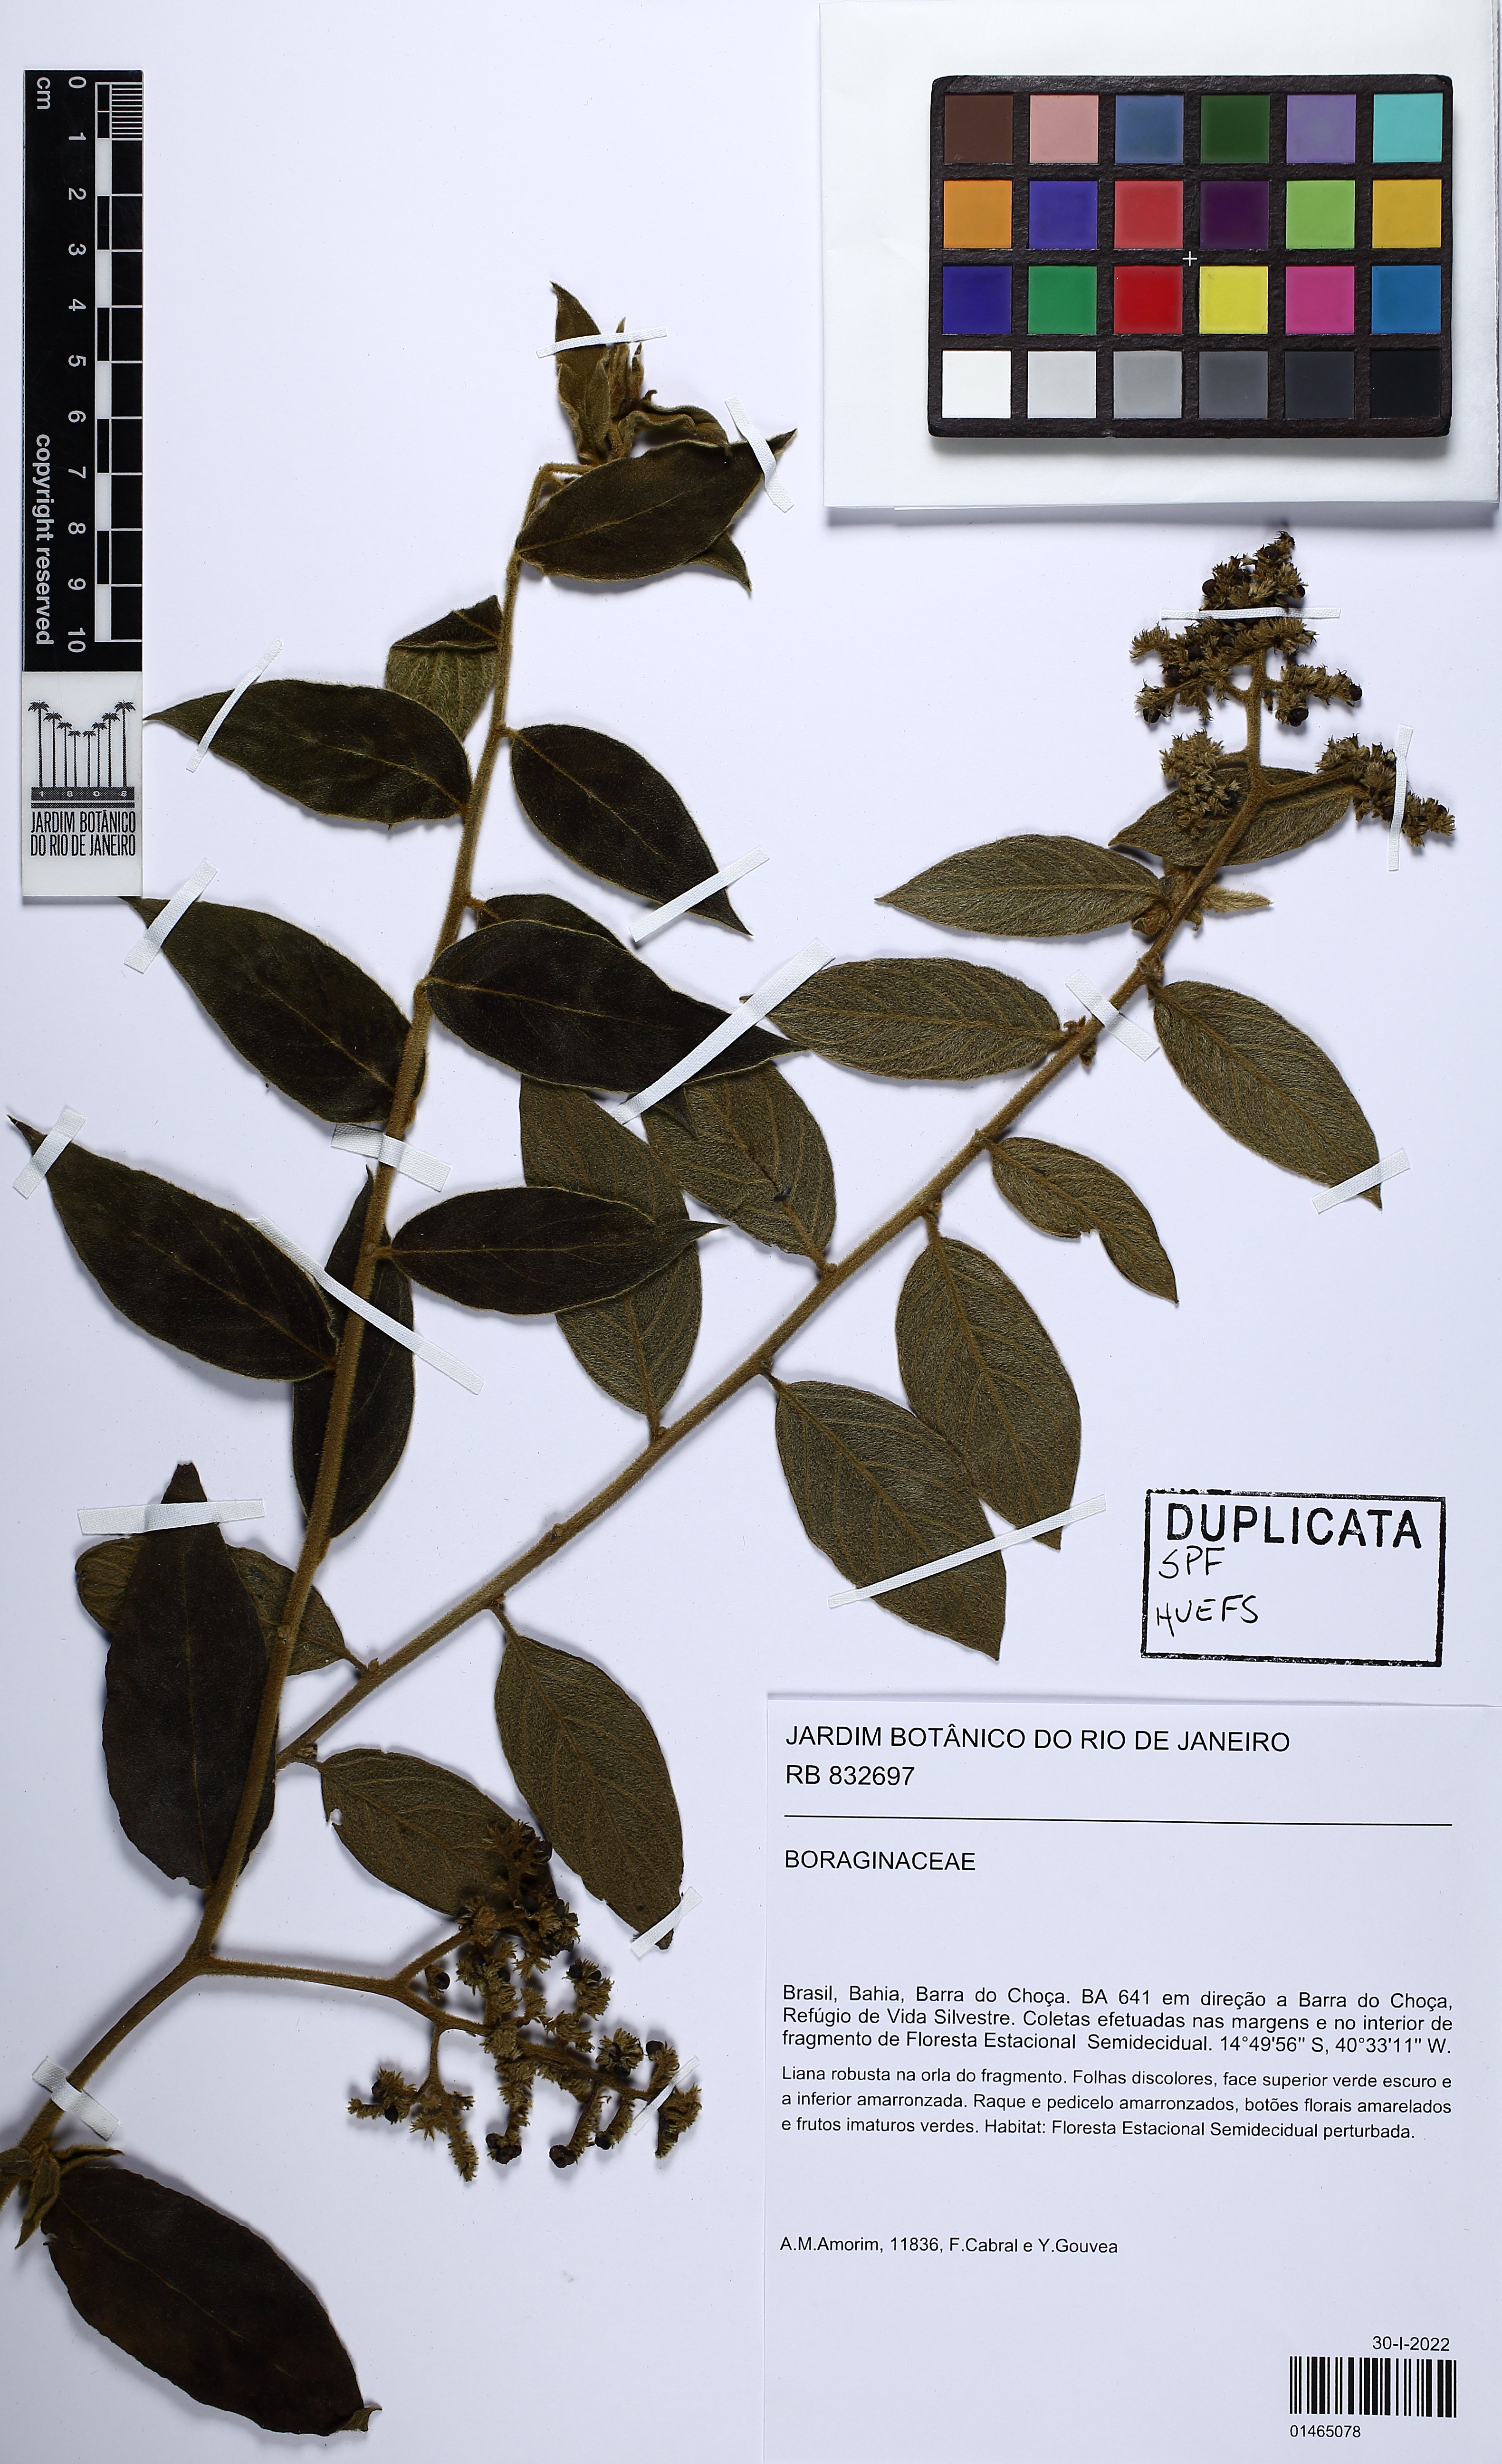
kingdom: Plantae
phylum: Tracheophyta
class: Magnoliopsida
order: Boraginales
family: Heliotropiaceae
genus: Tournefortia
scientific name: Tournefortia villosa
